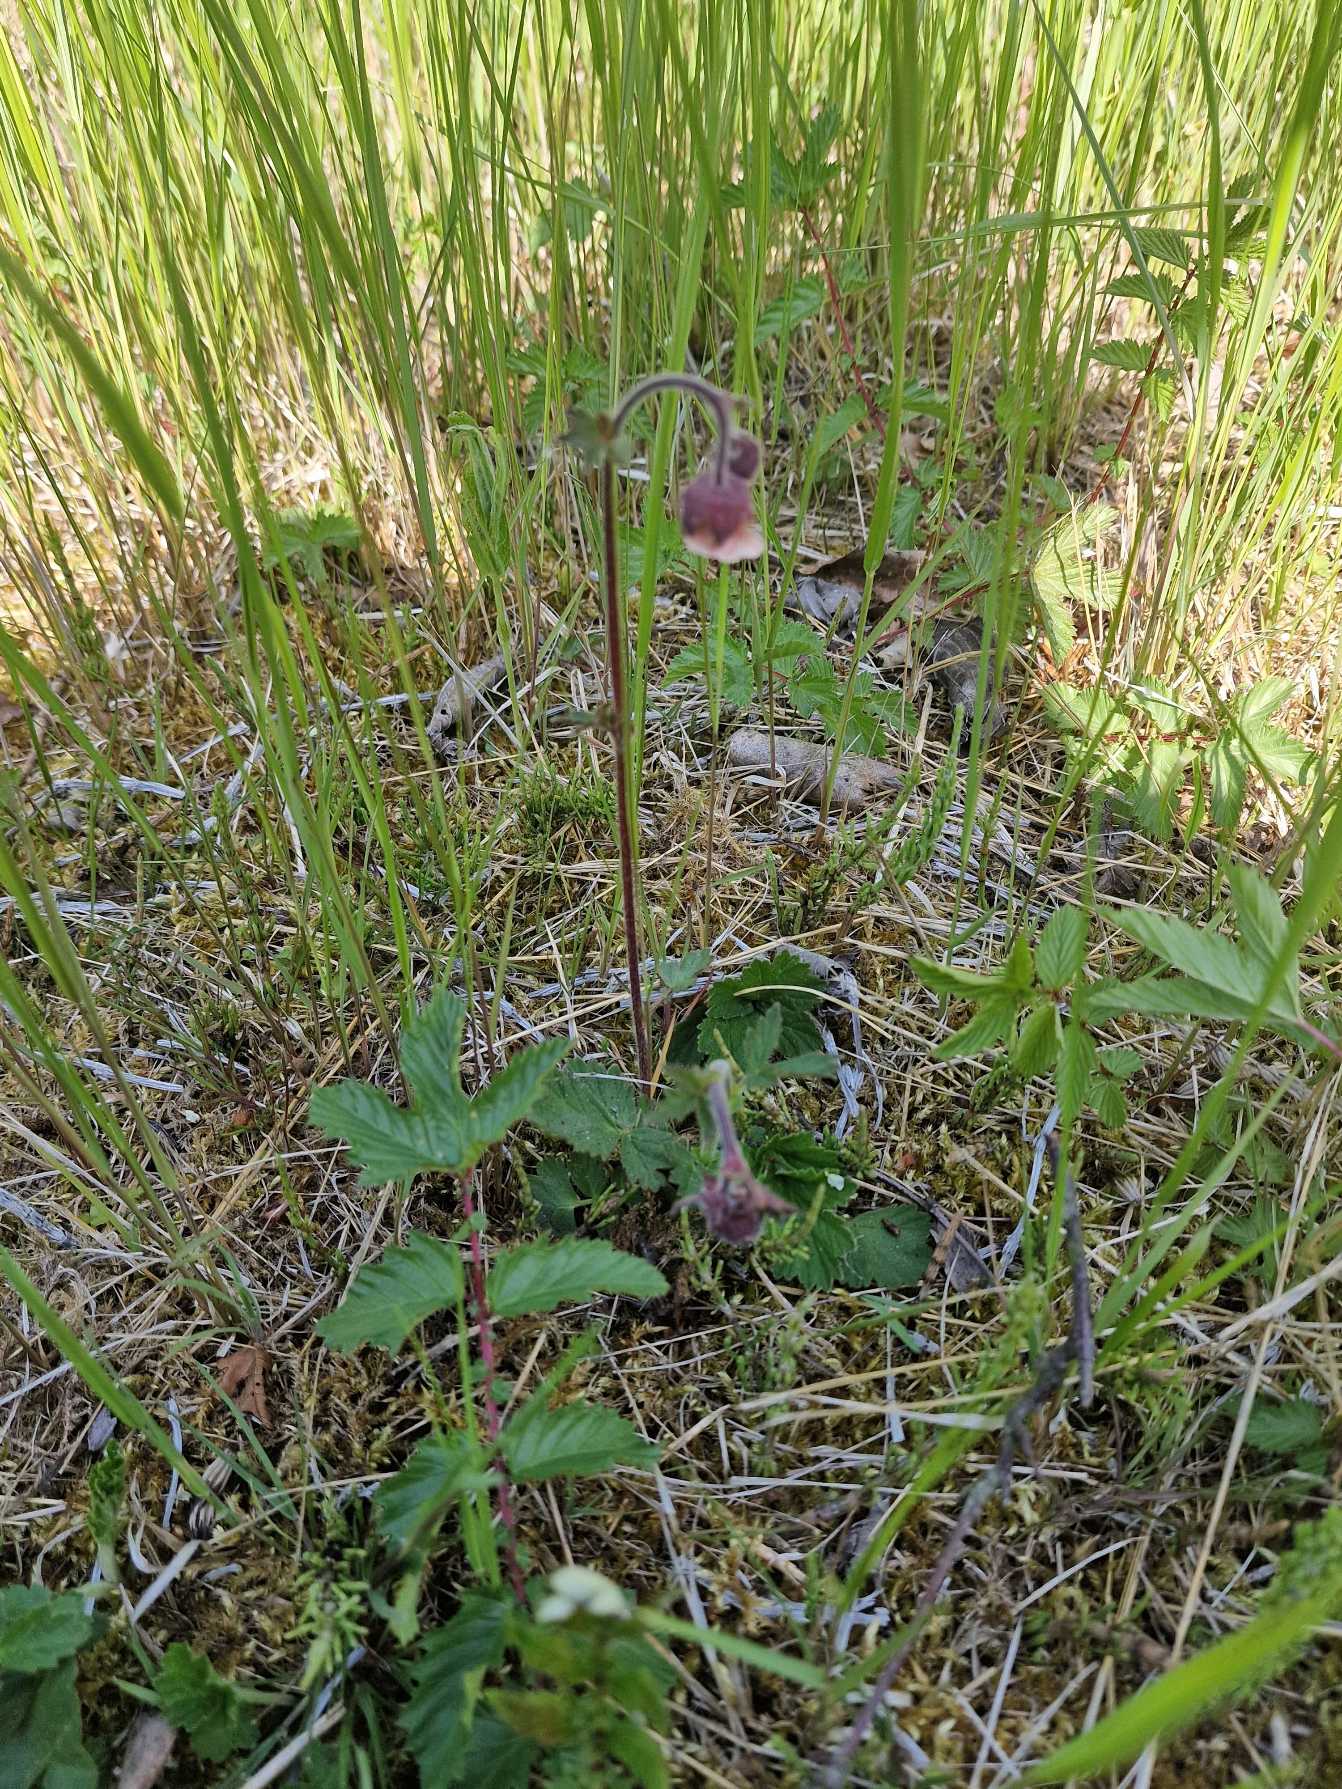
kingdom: Plantae
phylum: Tracheophyta
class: Magnoliopsida
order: Rosales
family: Rosaceae
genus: Geum
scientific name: Geum rivale
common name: Eng-nellikerod
